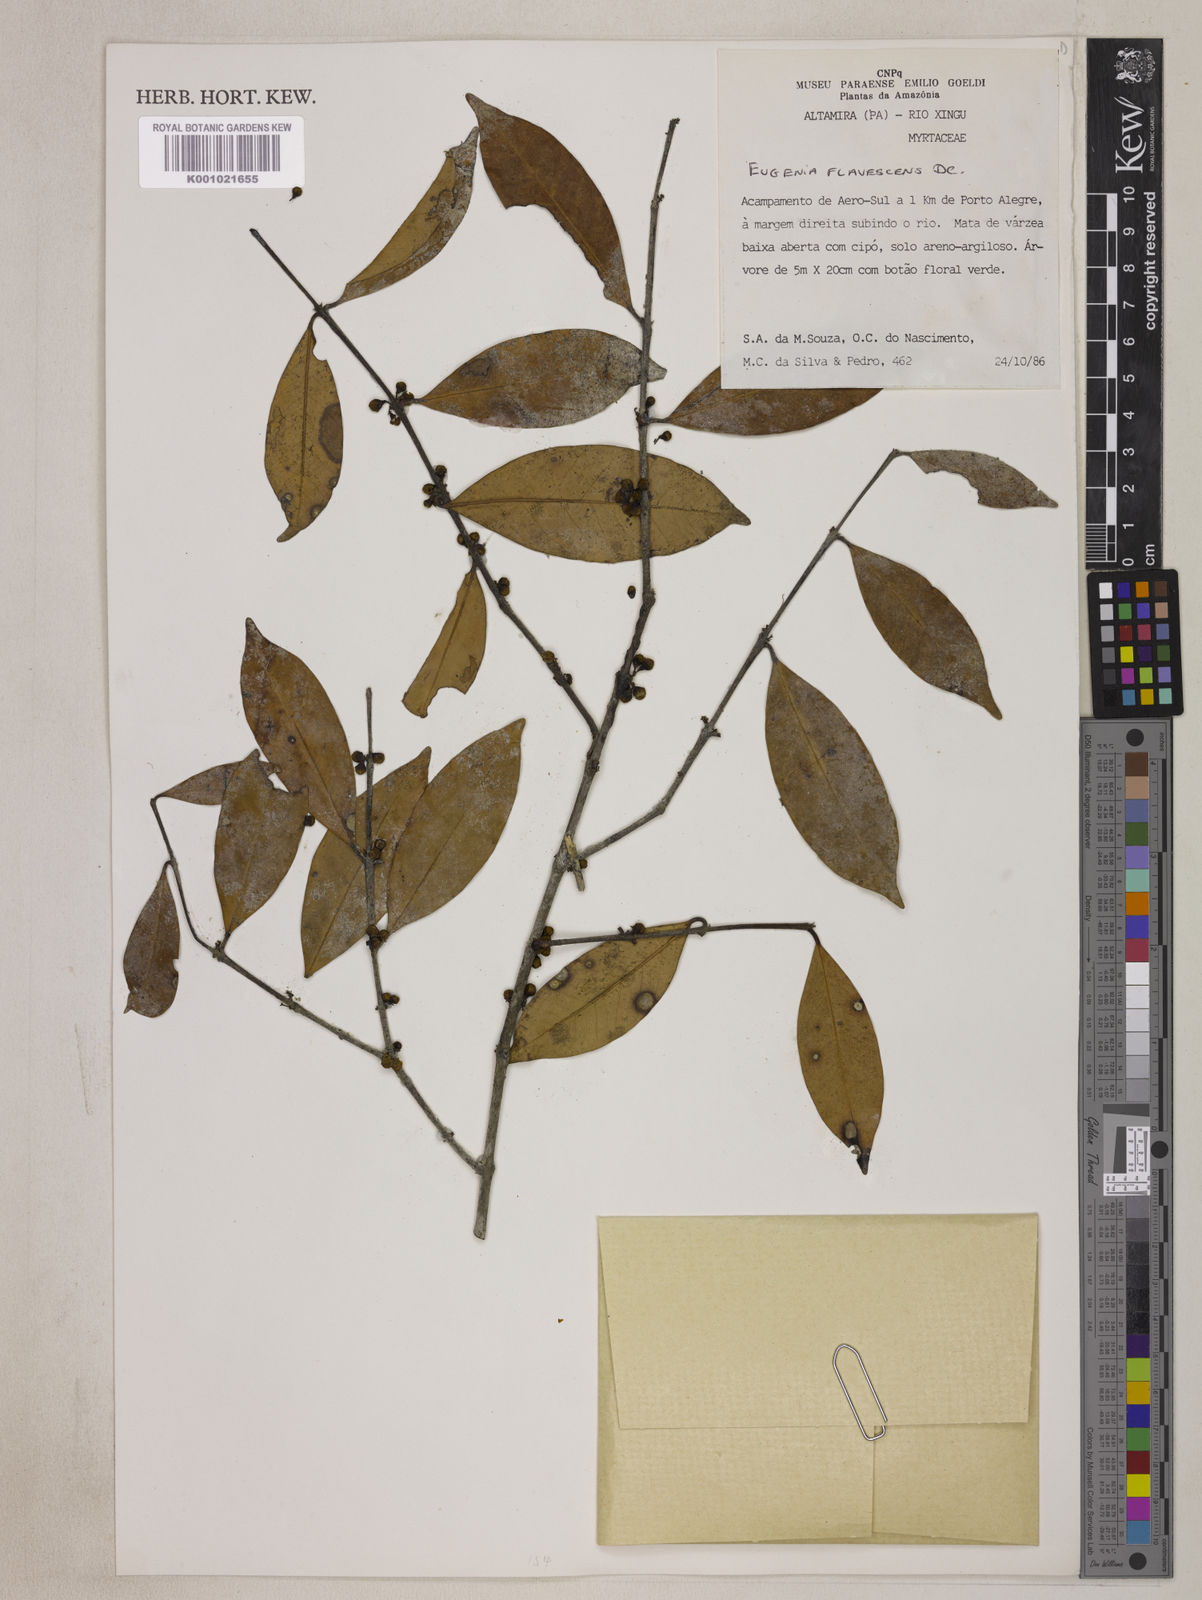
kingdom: Plantae
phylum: Tracheophyta
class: Magnoliopsida
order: Myrtales
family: Myrtaceae
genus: Eugenia
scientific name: Eugenia flavescens
